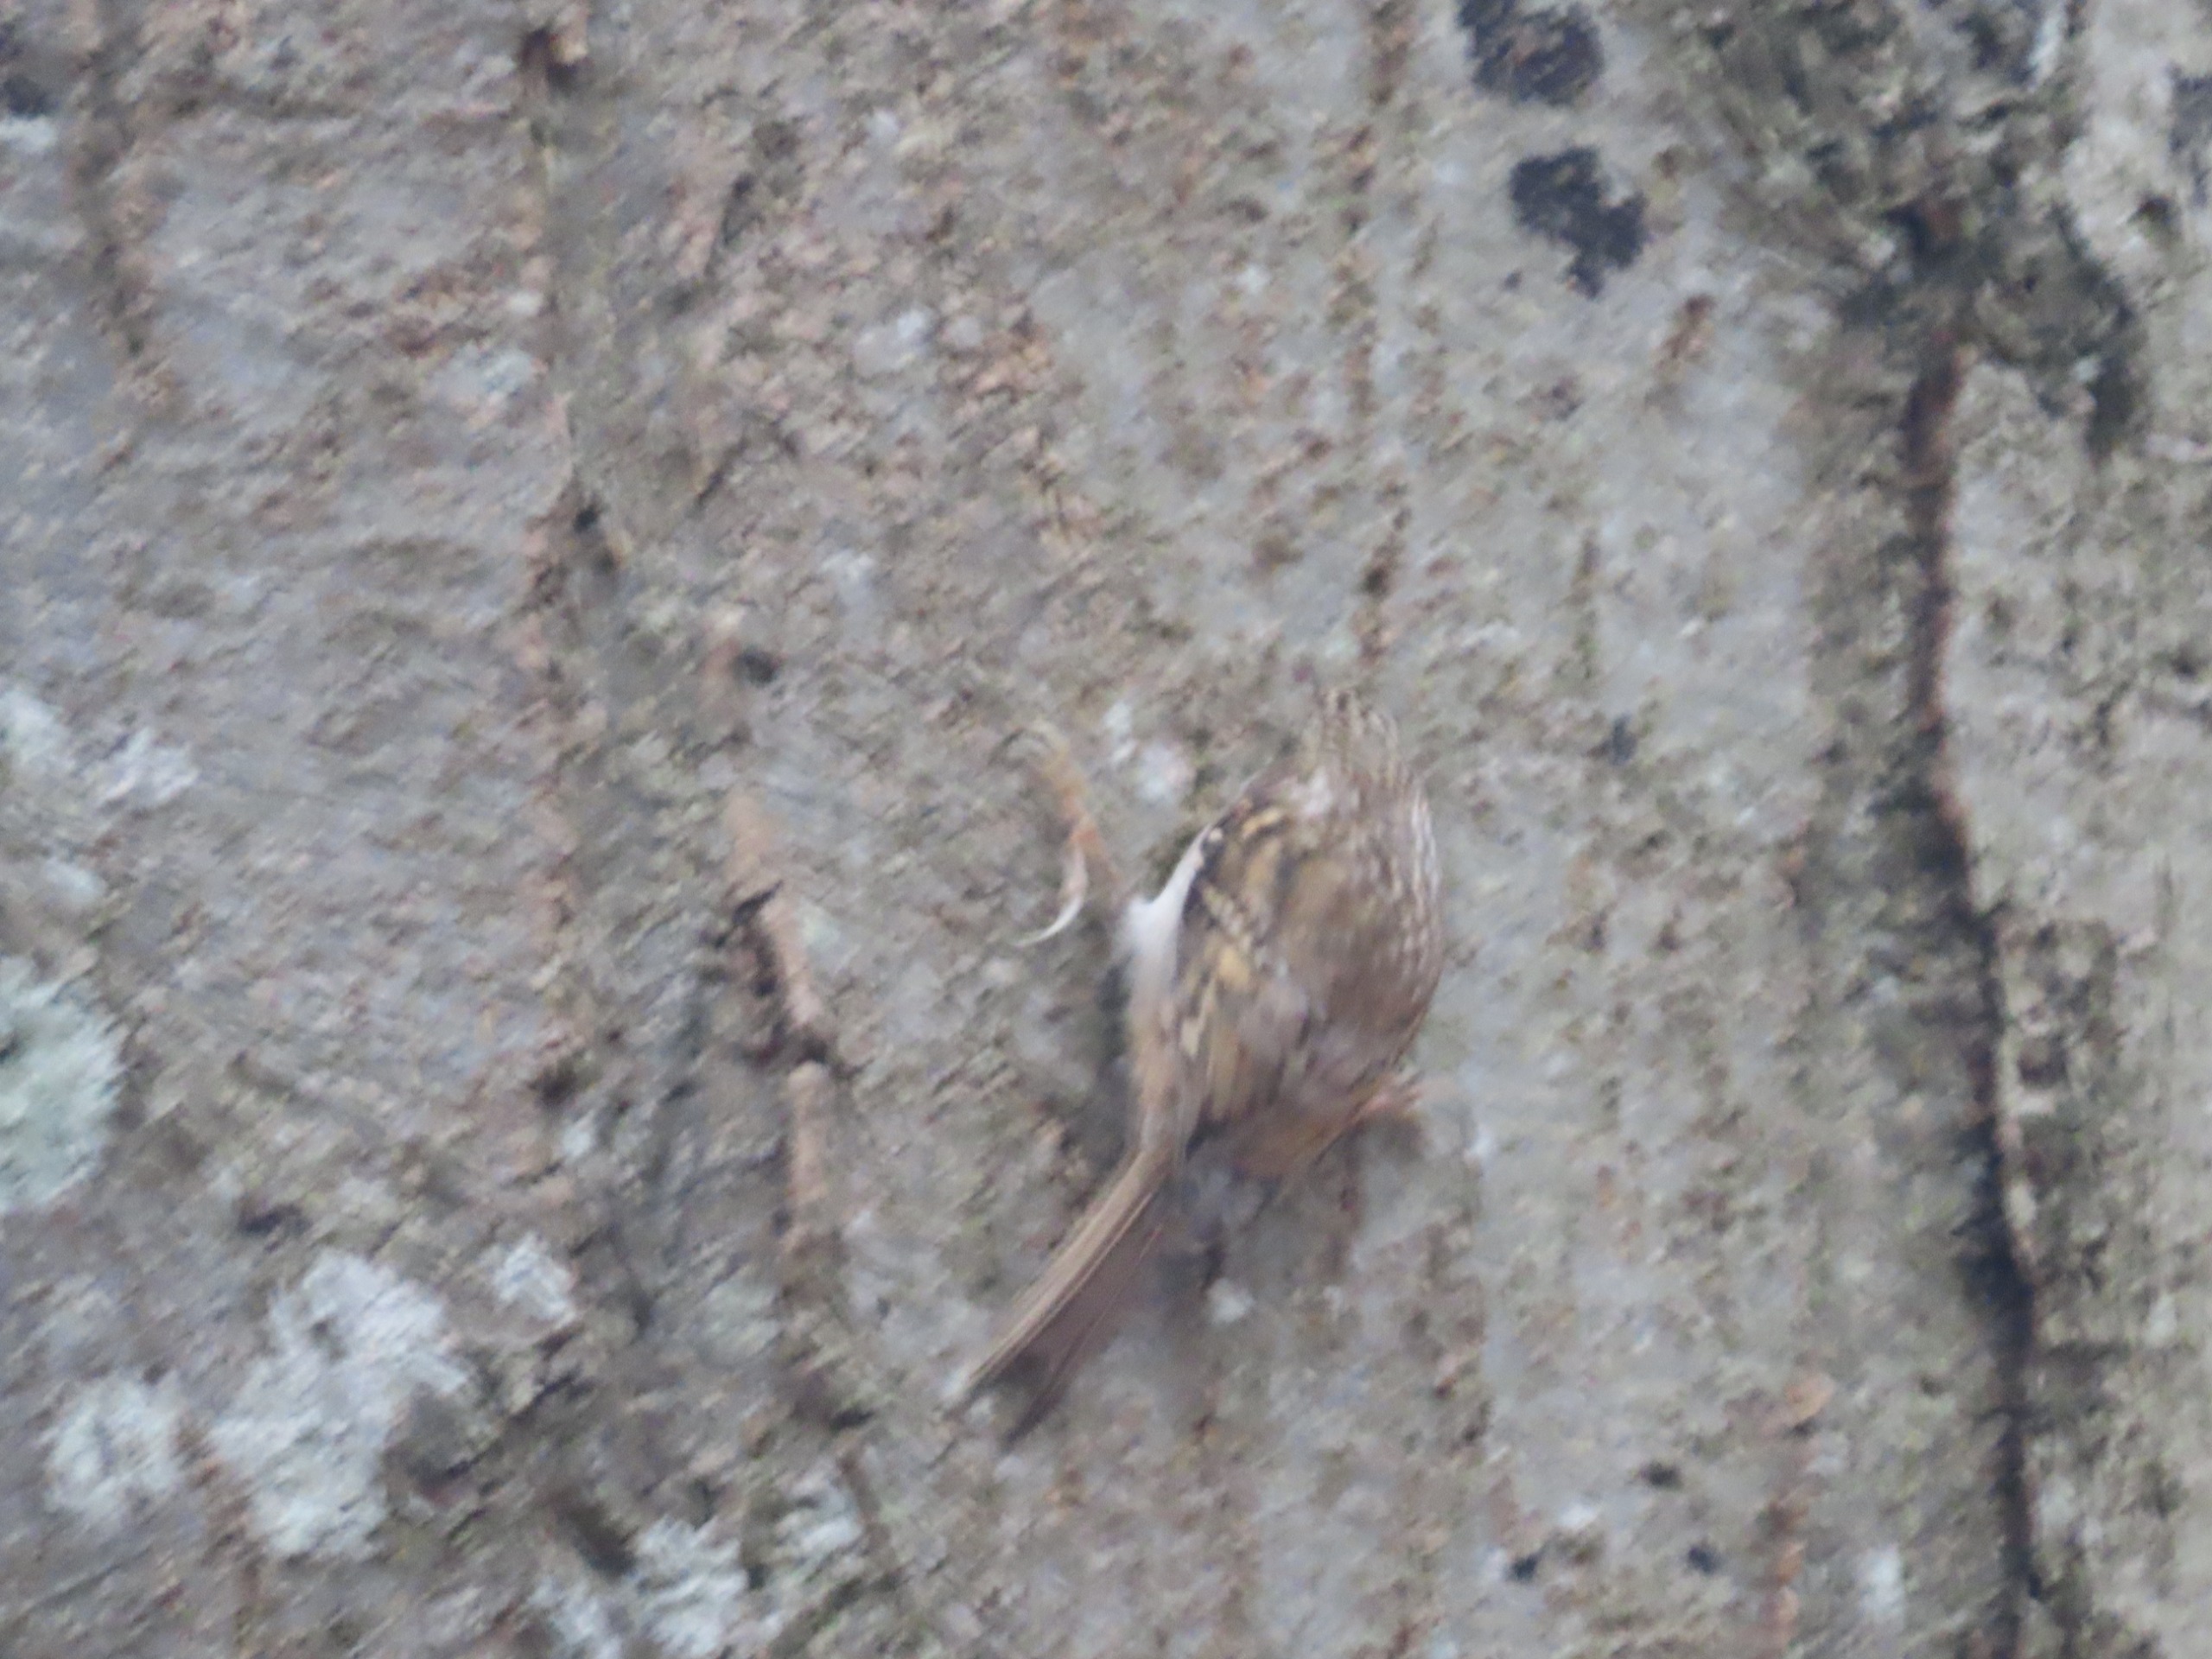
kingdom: Animalia
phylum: Chordata
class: Aves
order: Passeriformes
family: Certhiidae
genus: Certhia
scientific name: Certhia familiaris
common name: Træløber
